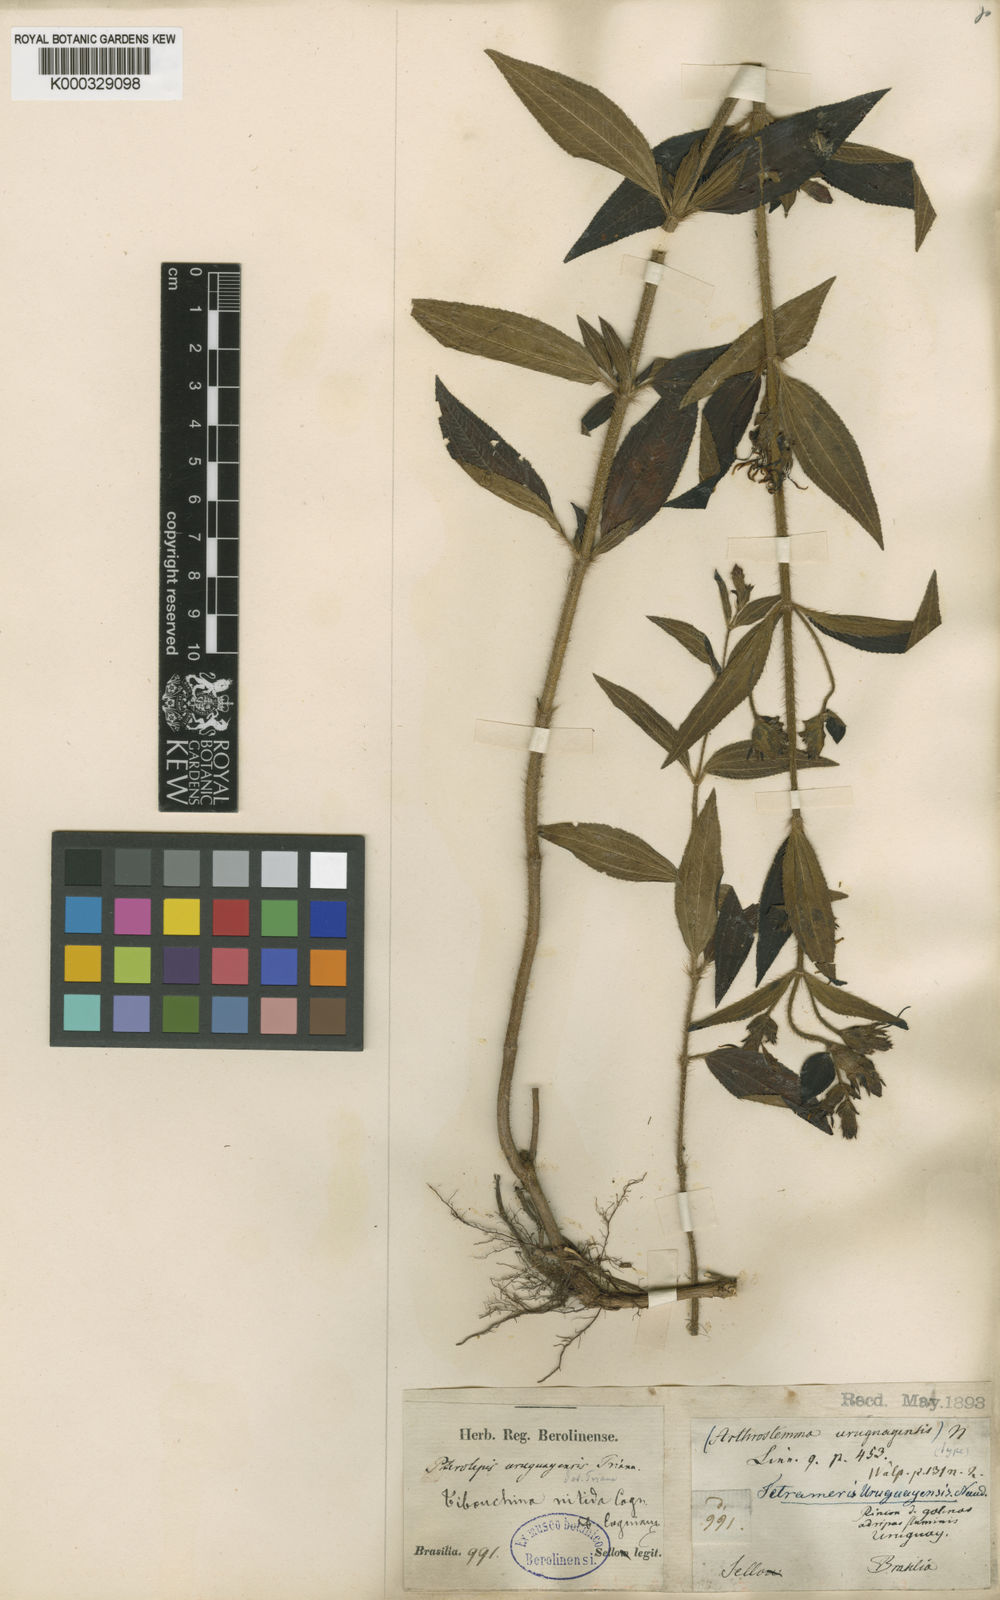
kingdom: Plantae
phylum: Tracheophyta
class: Magnoliopsida
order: Myrtales
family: Melastomataceae
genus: Chaetogastra
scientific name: Chaetogastra nitida
